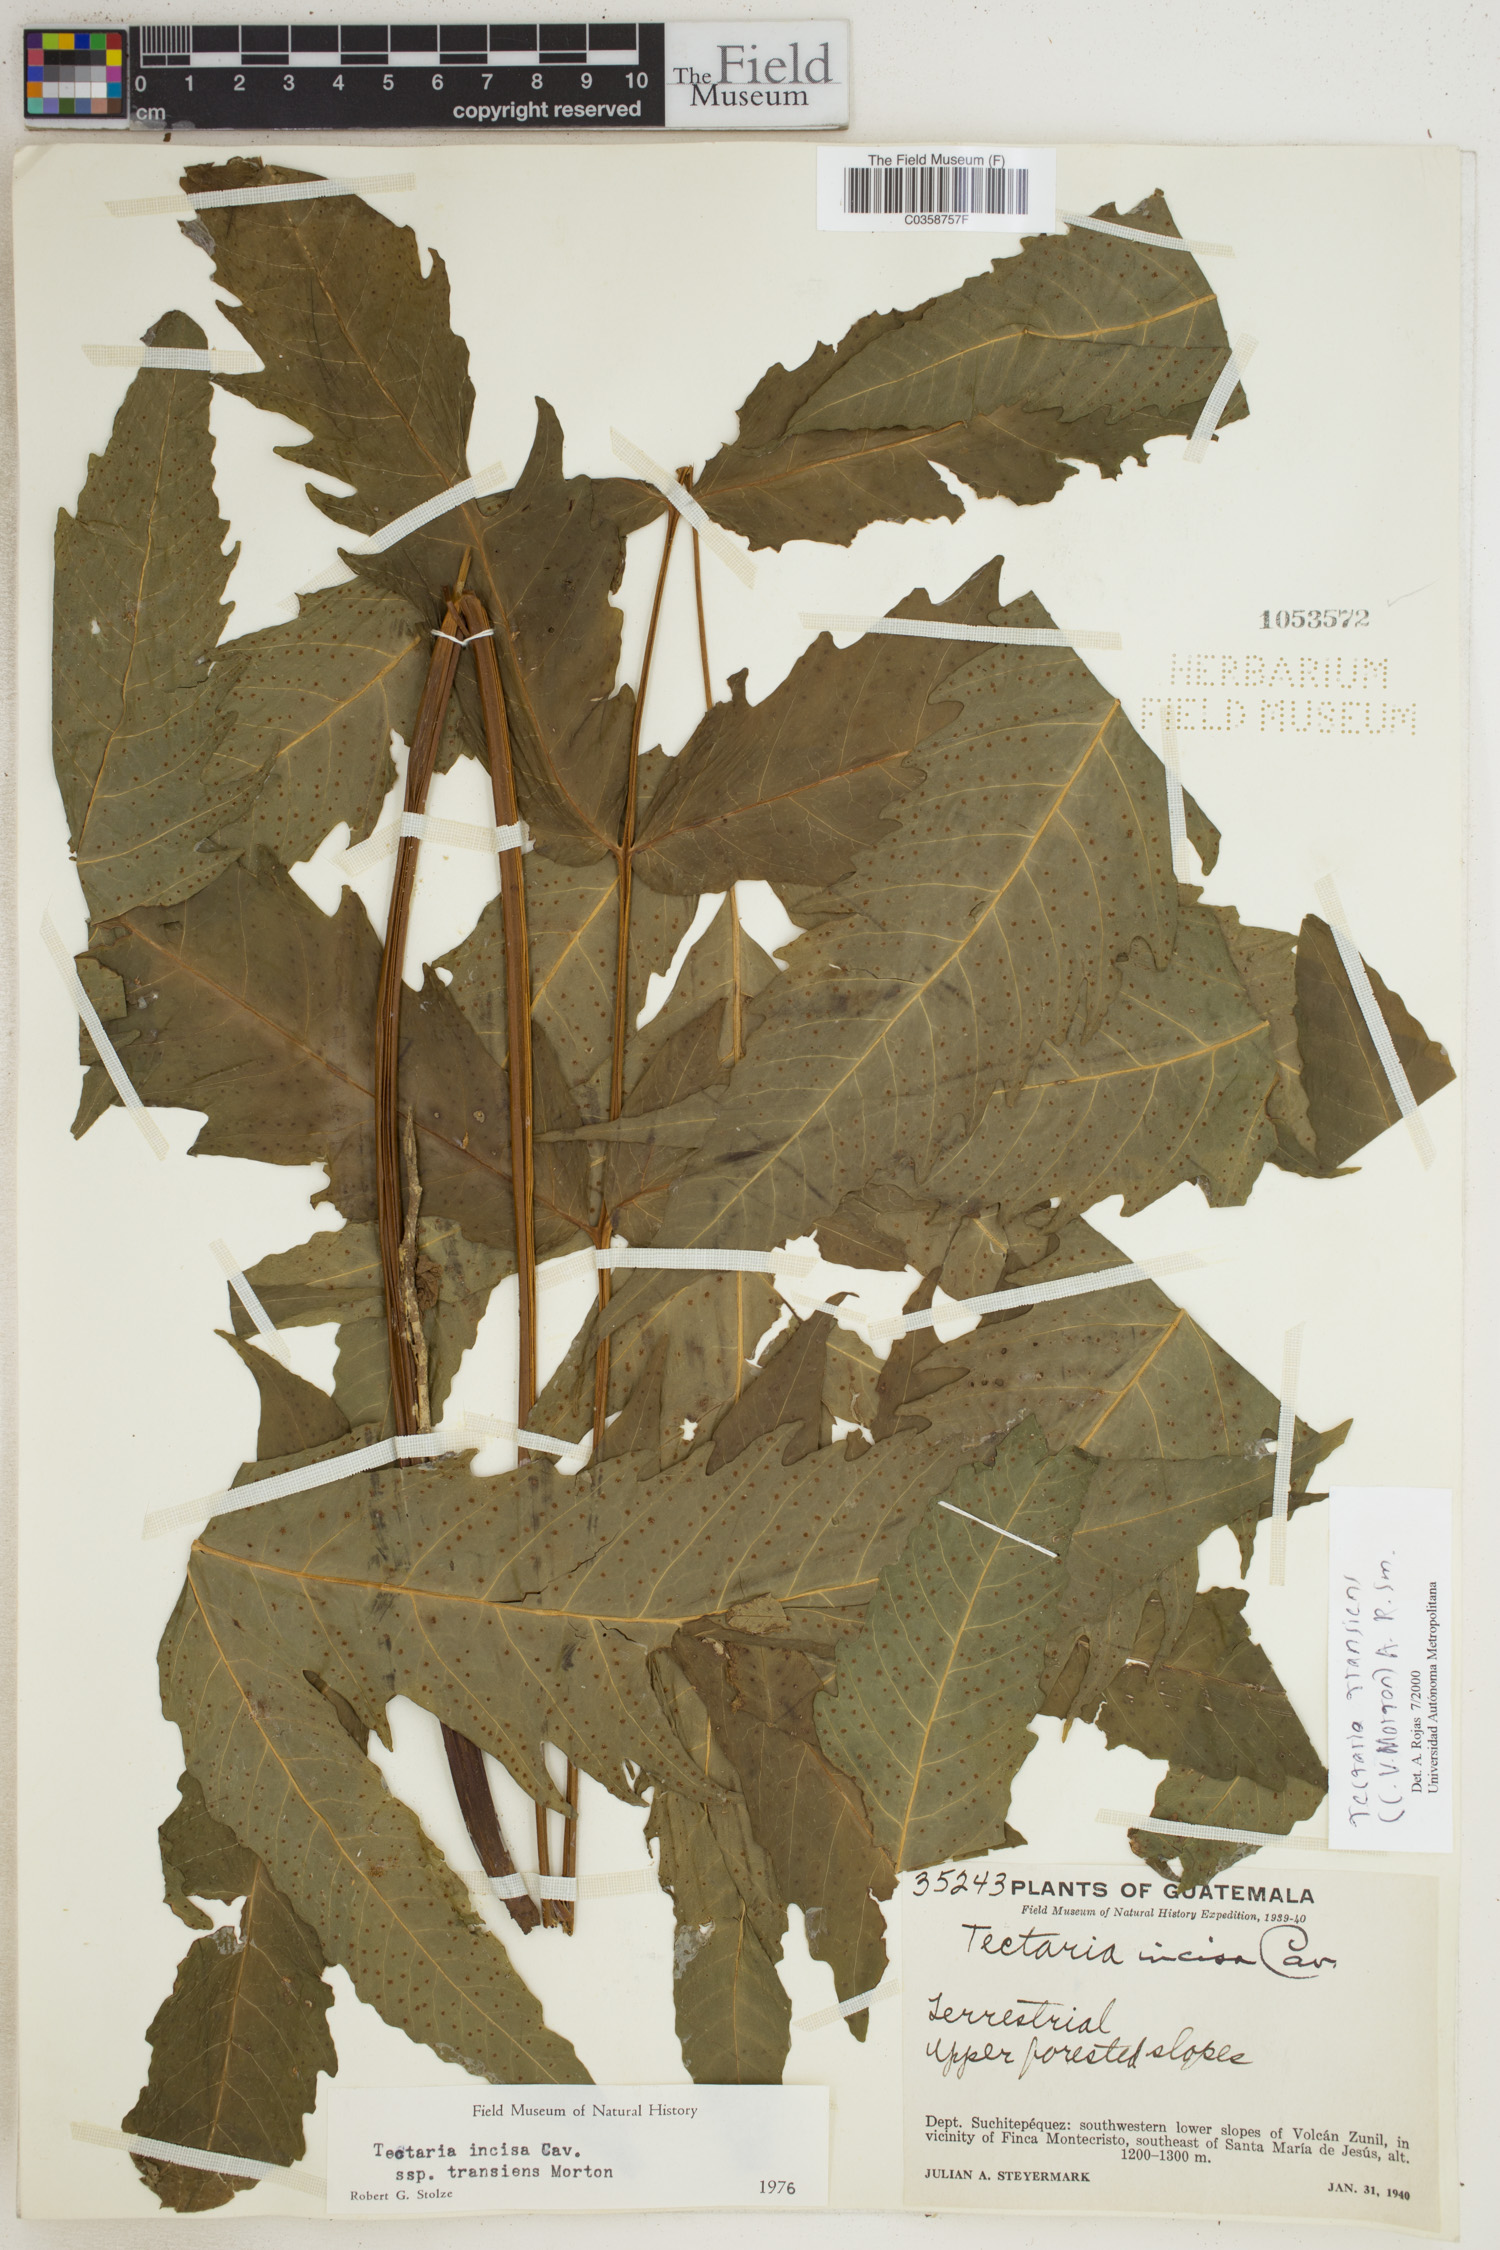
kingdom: Plantae
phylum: Tracheophyta
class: Polypodiopsida
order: Polypodiales
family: Tectariaceae
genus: Tectaria
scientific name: Tectaria transiens
